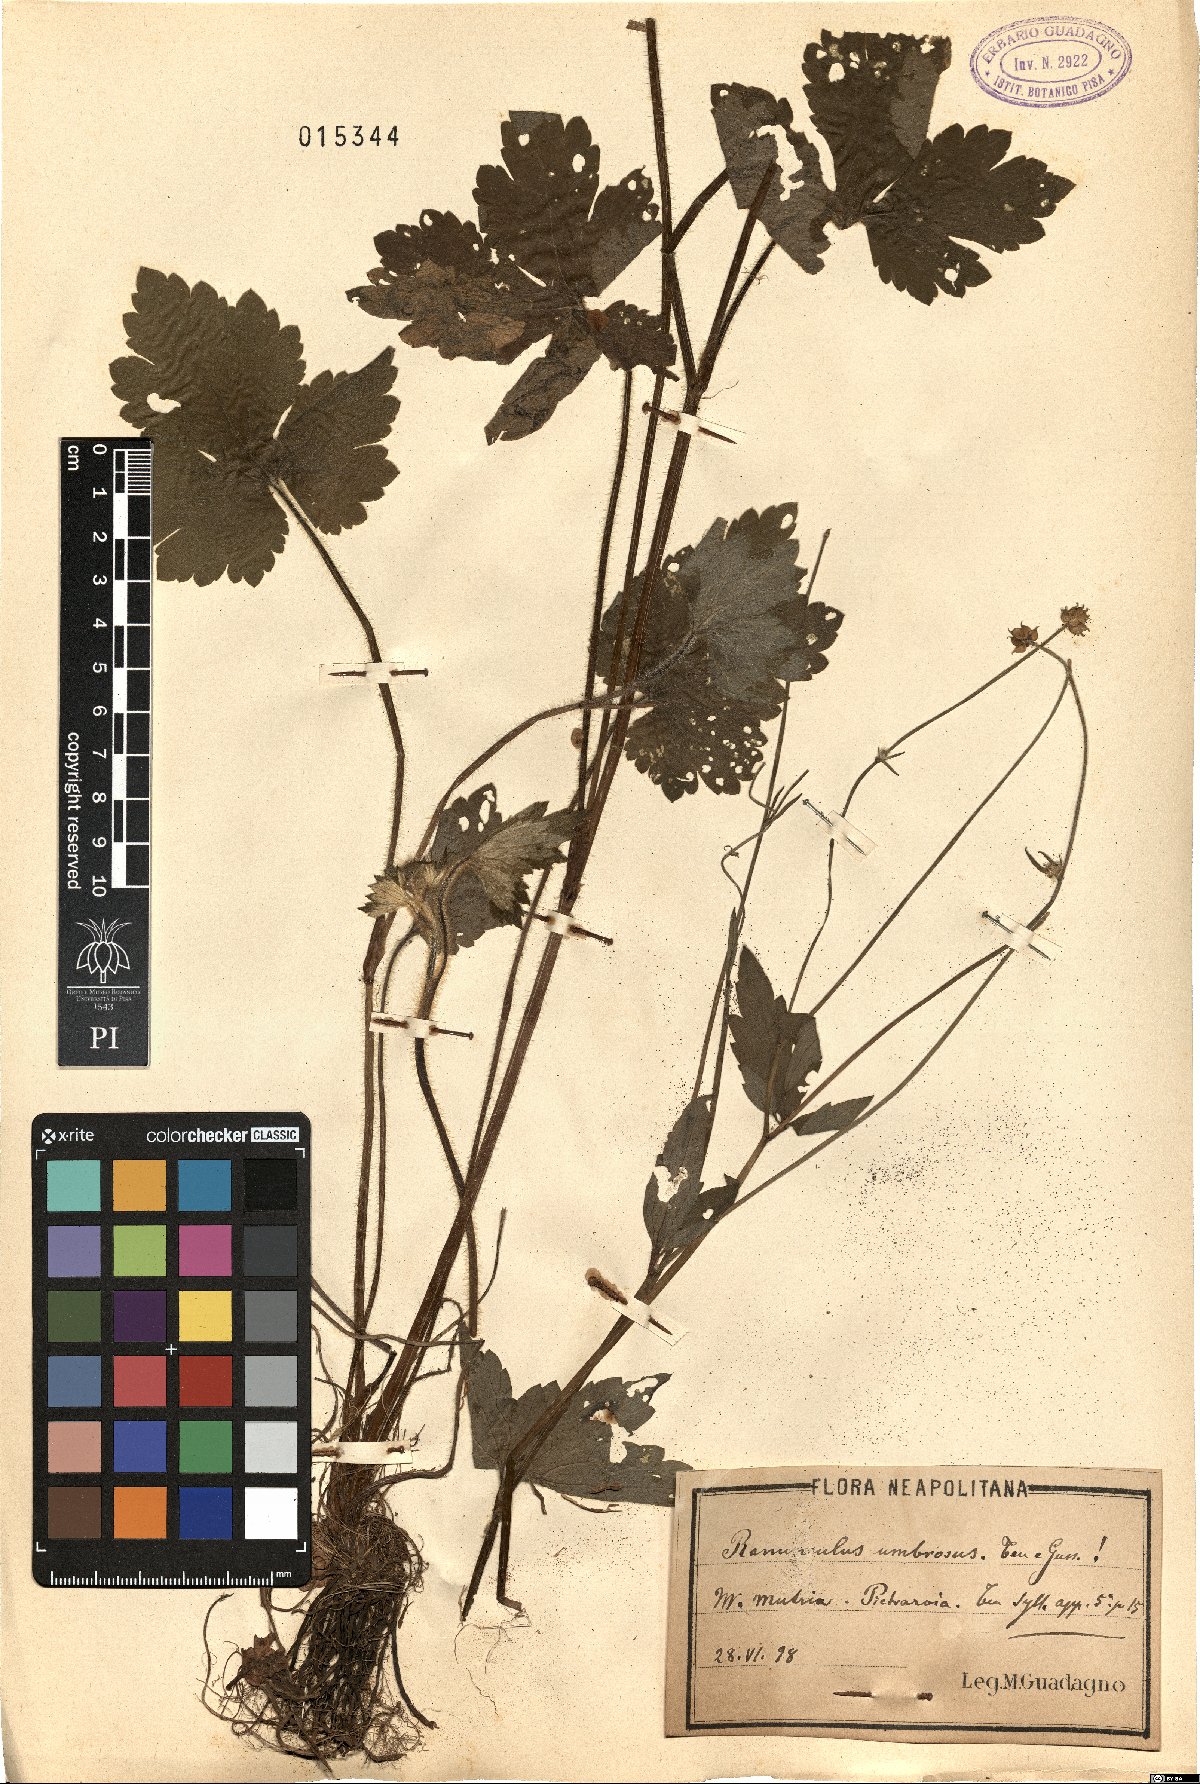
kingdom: Plantae
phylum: Tracheophyta
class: Magnoliopsida
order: Ranunculales
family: Ranunculaceae
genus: Ranunculus
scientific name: Ranunculus lanuginosus
